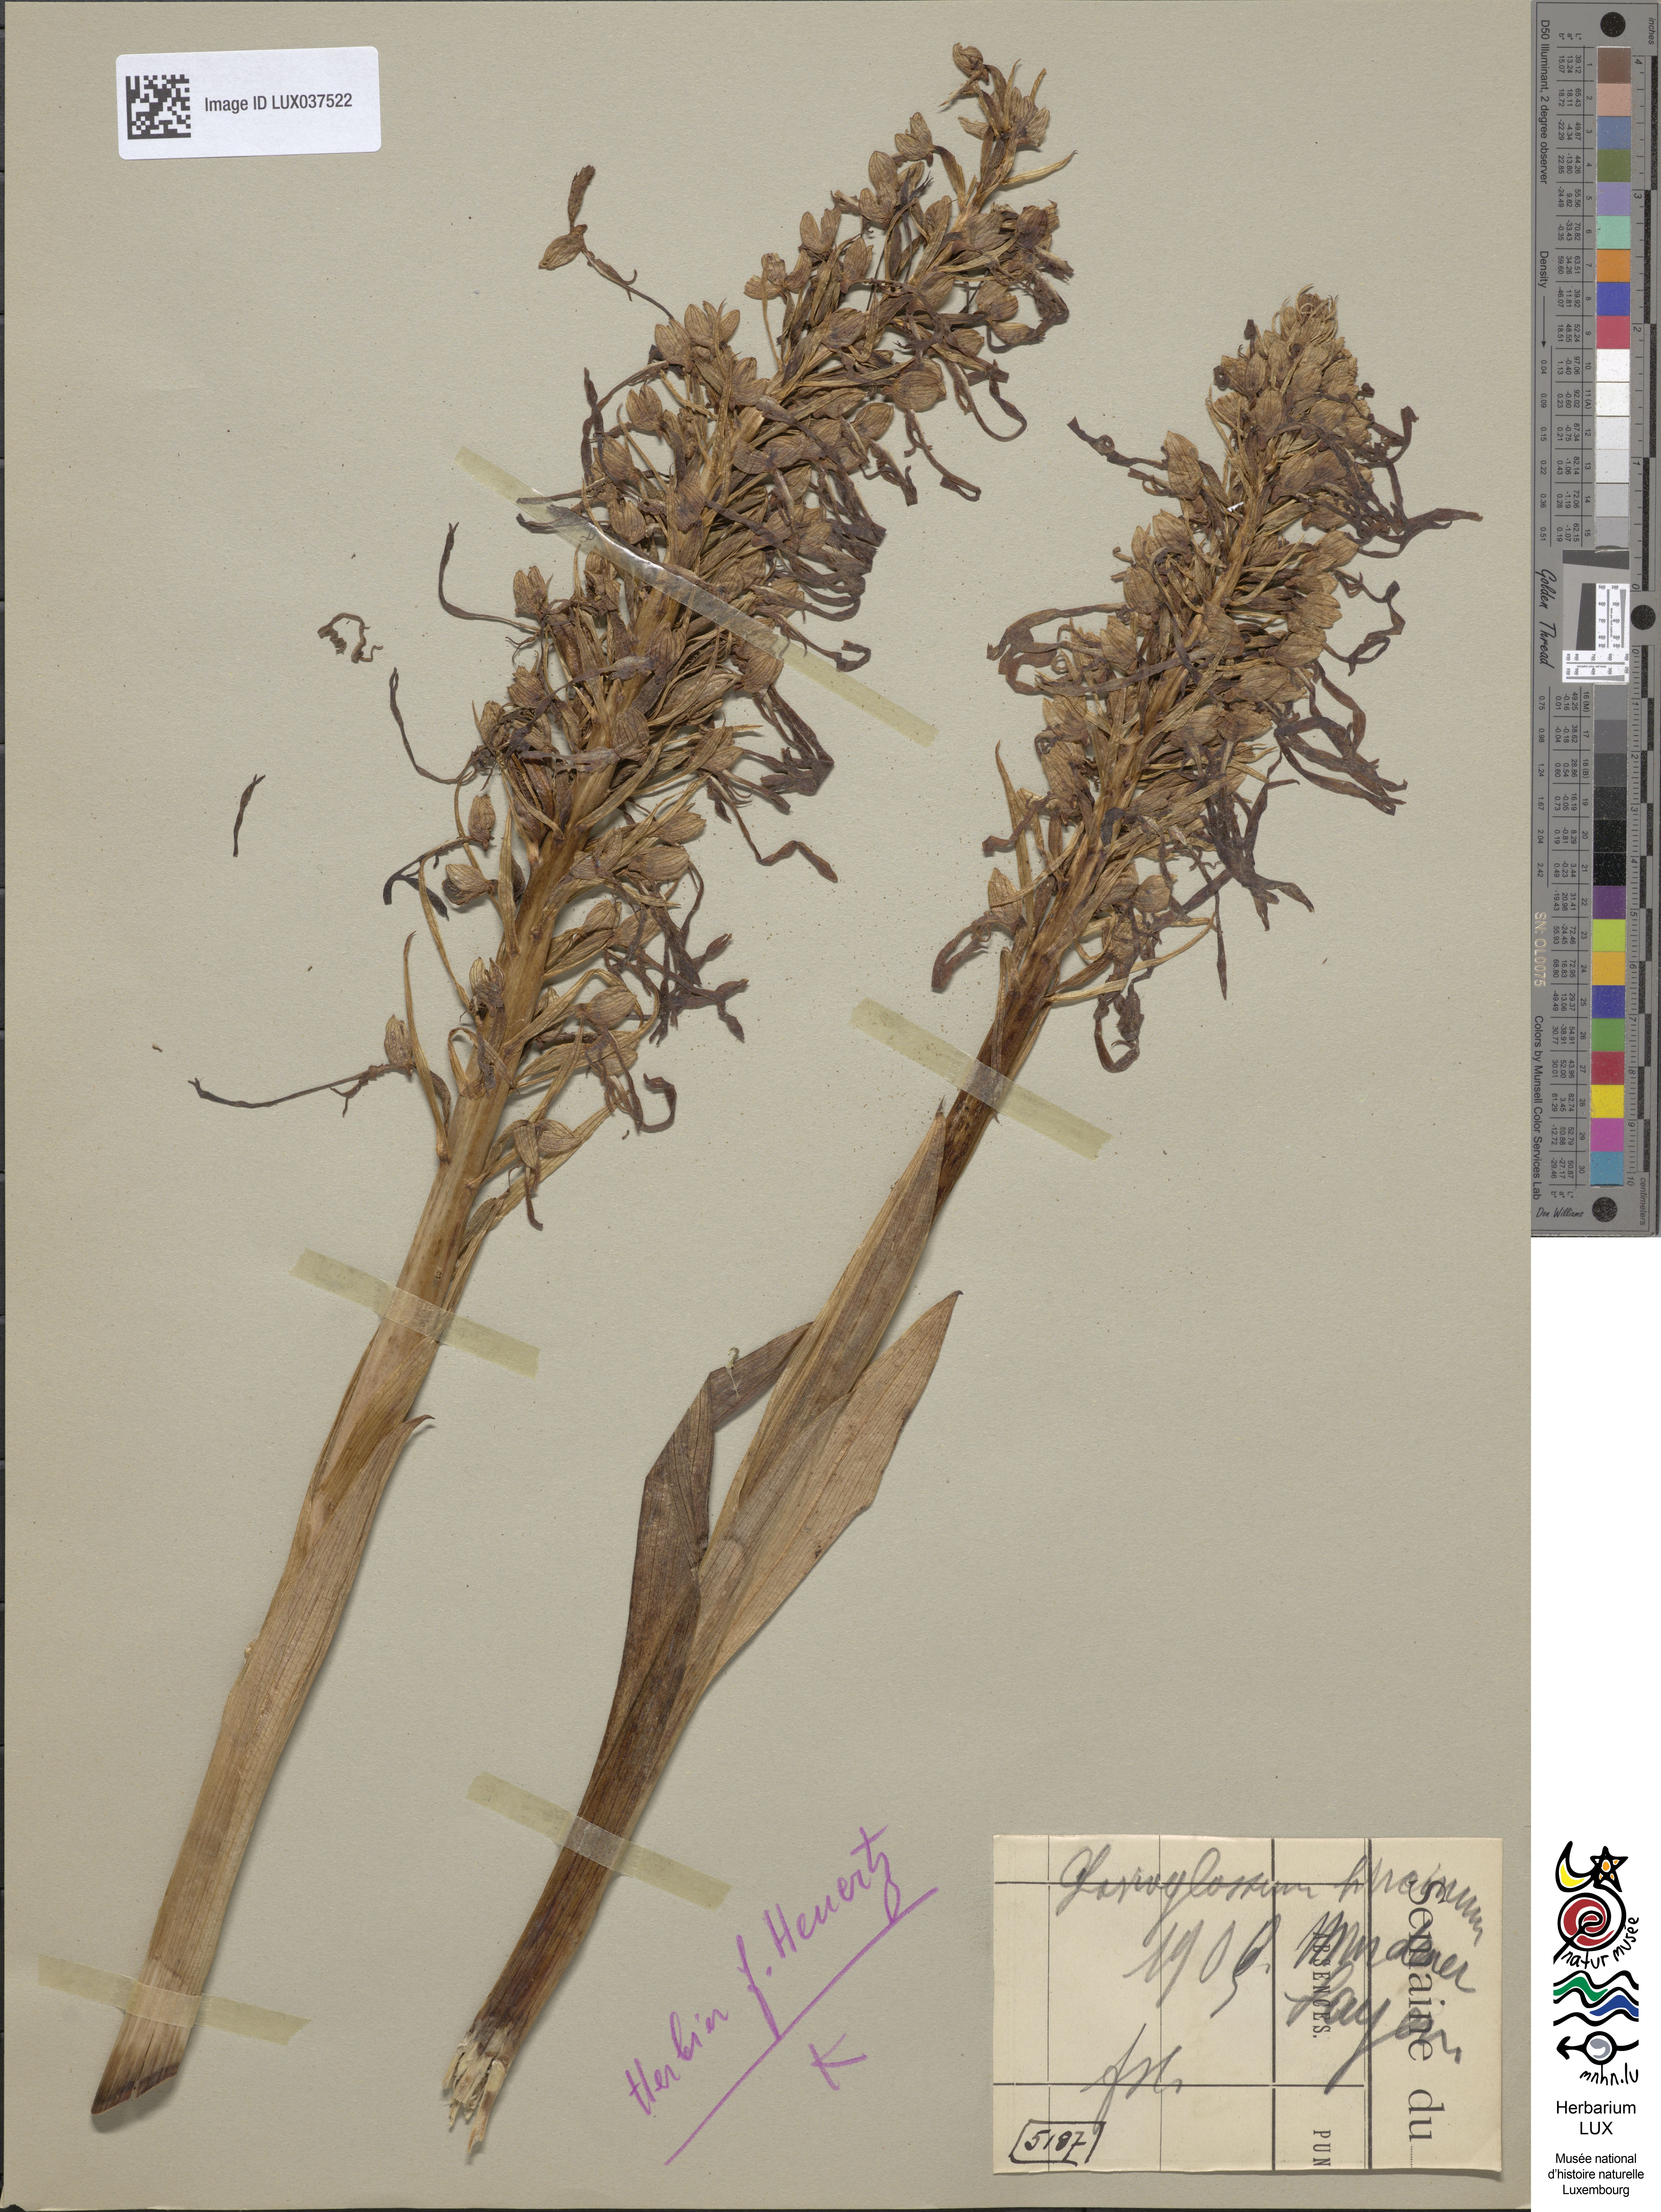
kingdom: Plantae
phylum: Tracheophyta
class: Liliopsida
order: Asparagales
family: Orchidaceae
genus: Himantoglossum
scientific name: Himantoglossum hircinum
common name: Lizard orchid
